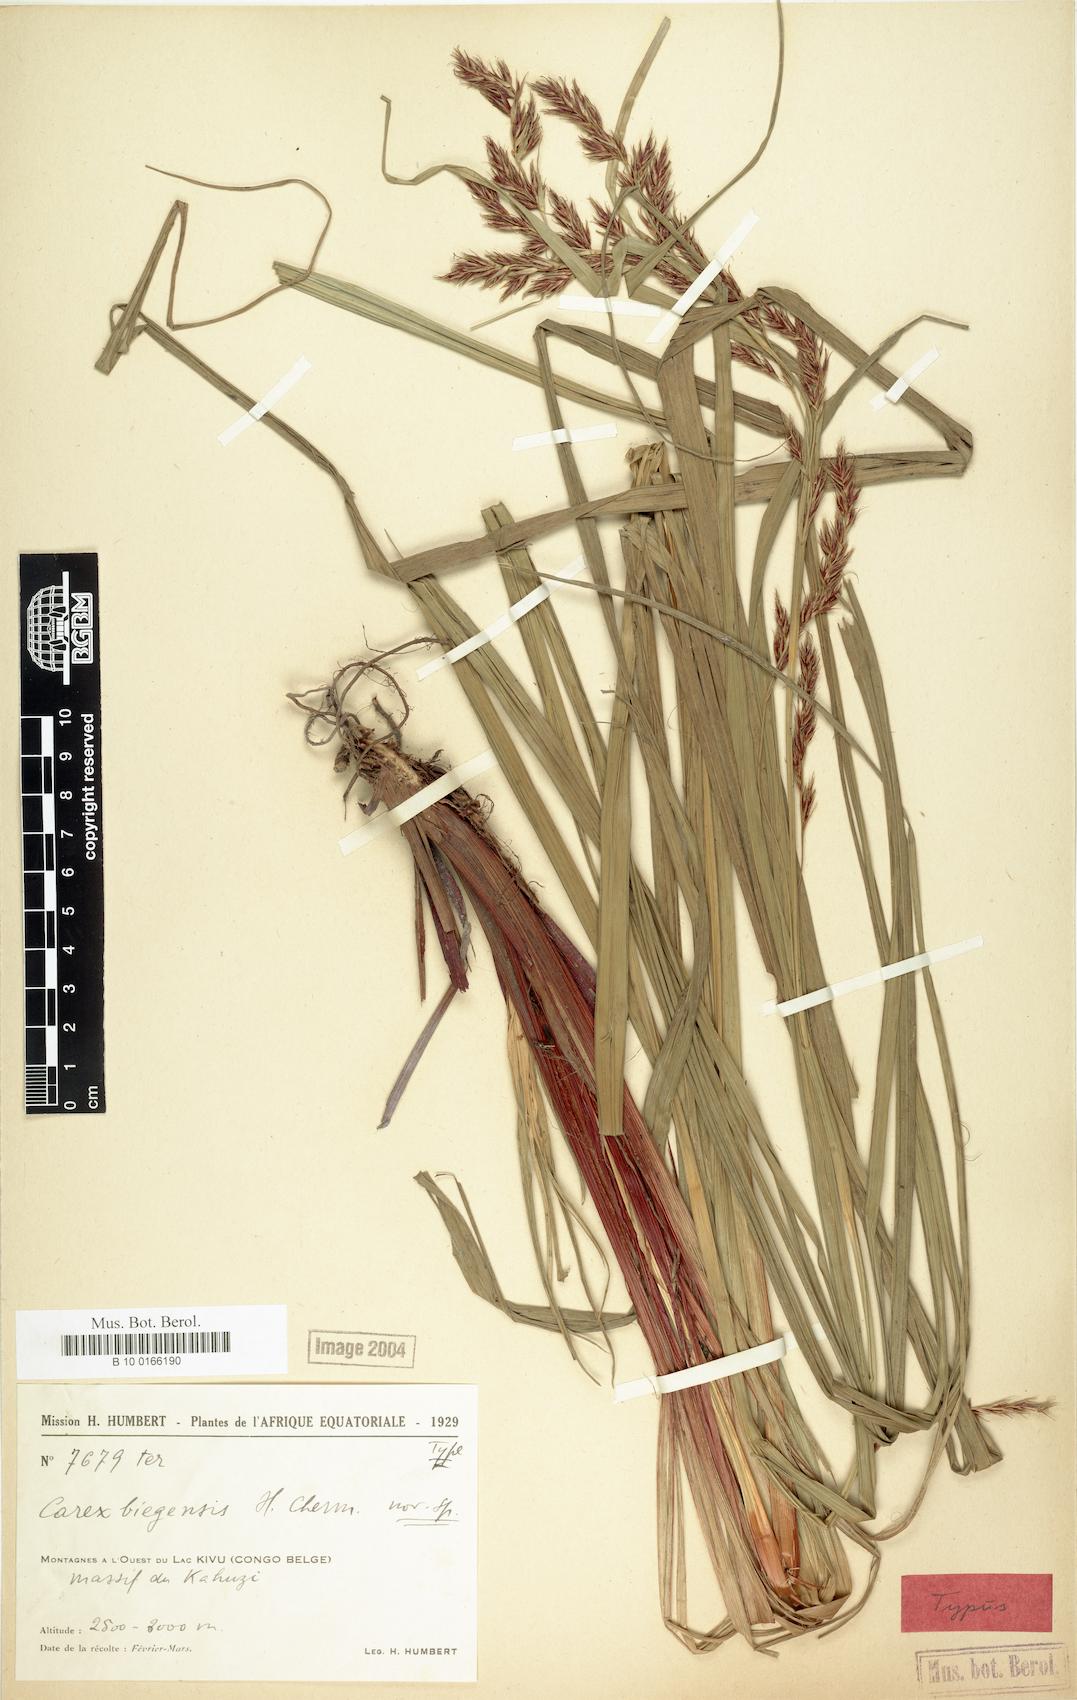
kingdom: Plantae
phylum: Tracheophyta
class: Liliopsida
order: Poales
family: Cyperaceae
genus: Carex
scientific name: Carex biegensis
